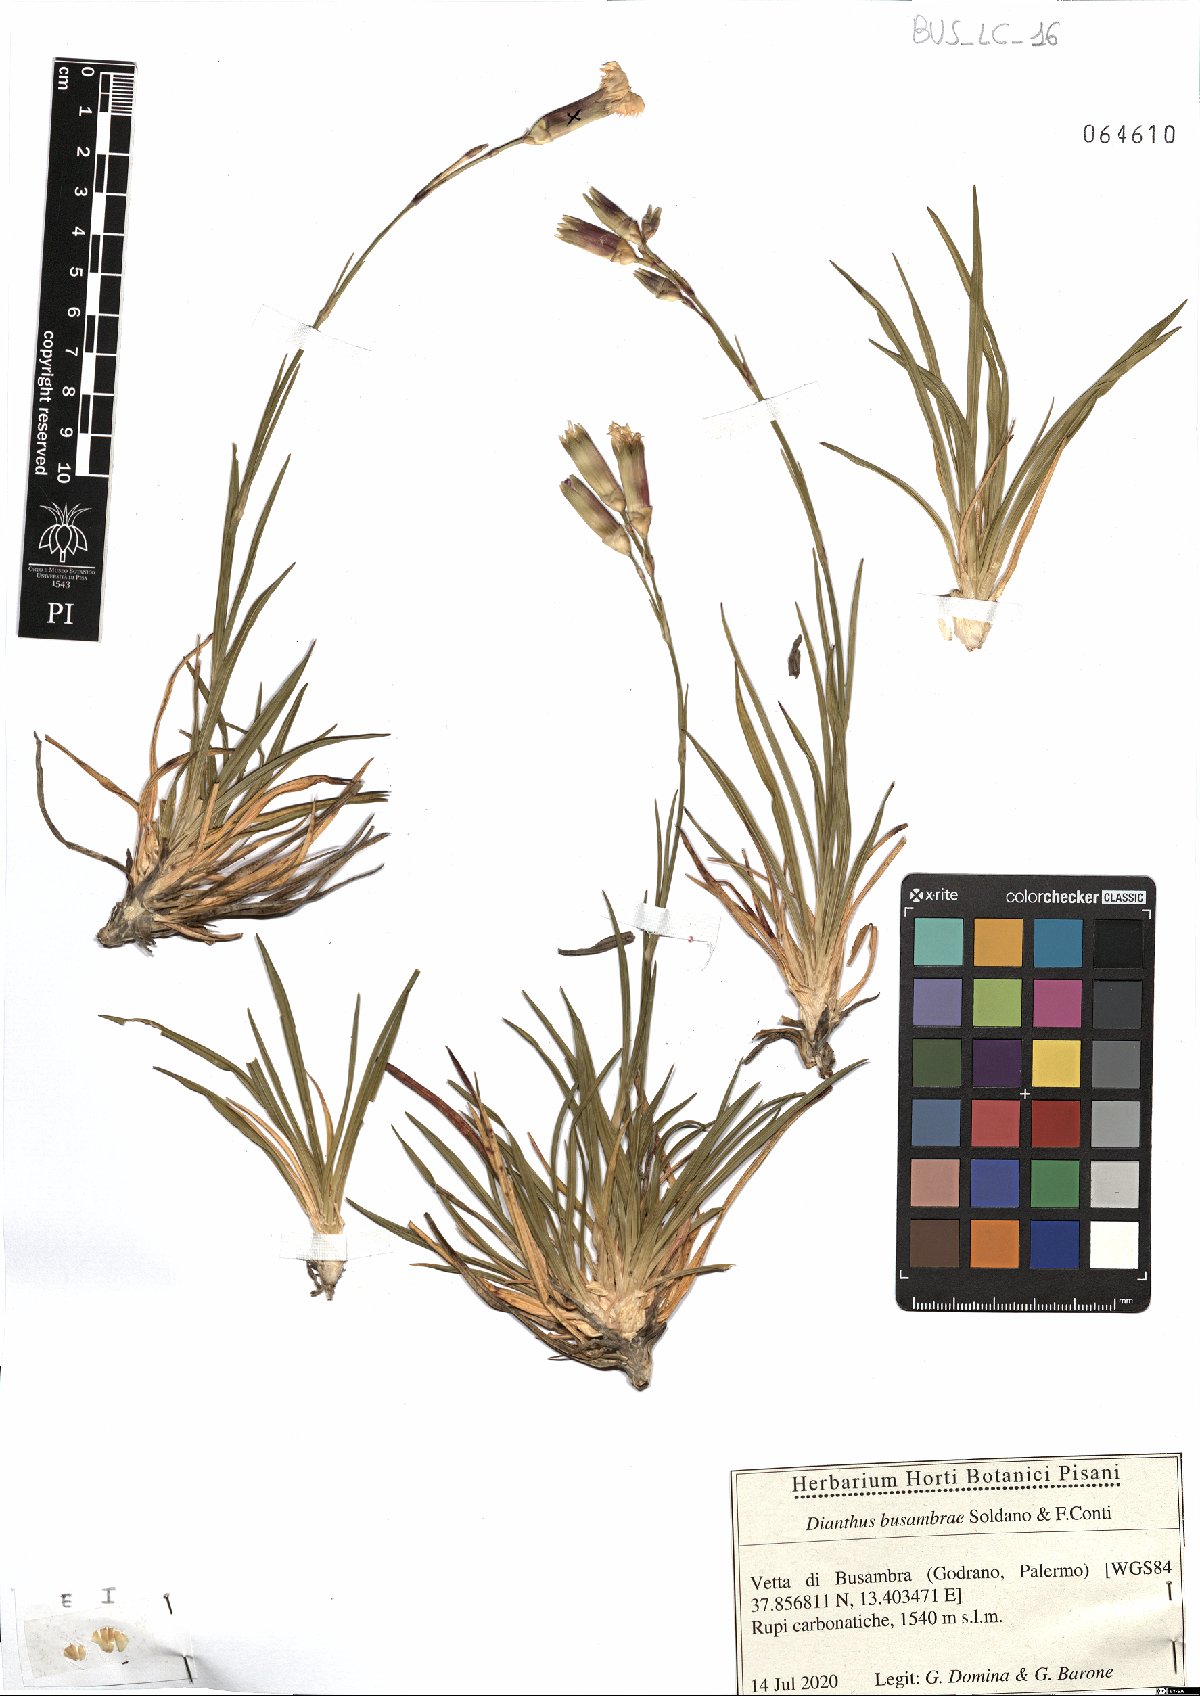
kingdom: Plantae
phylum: Tracheophyta
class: Magnoliopsida
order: Caryophyllales
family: Caryophyllaceae
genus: Dianthus
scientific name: Dianthus busambrae
